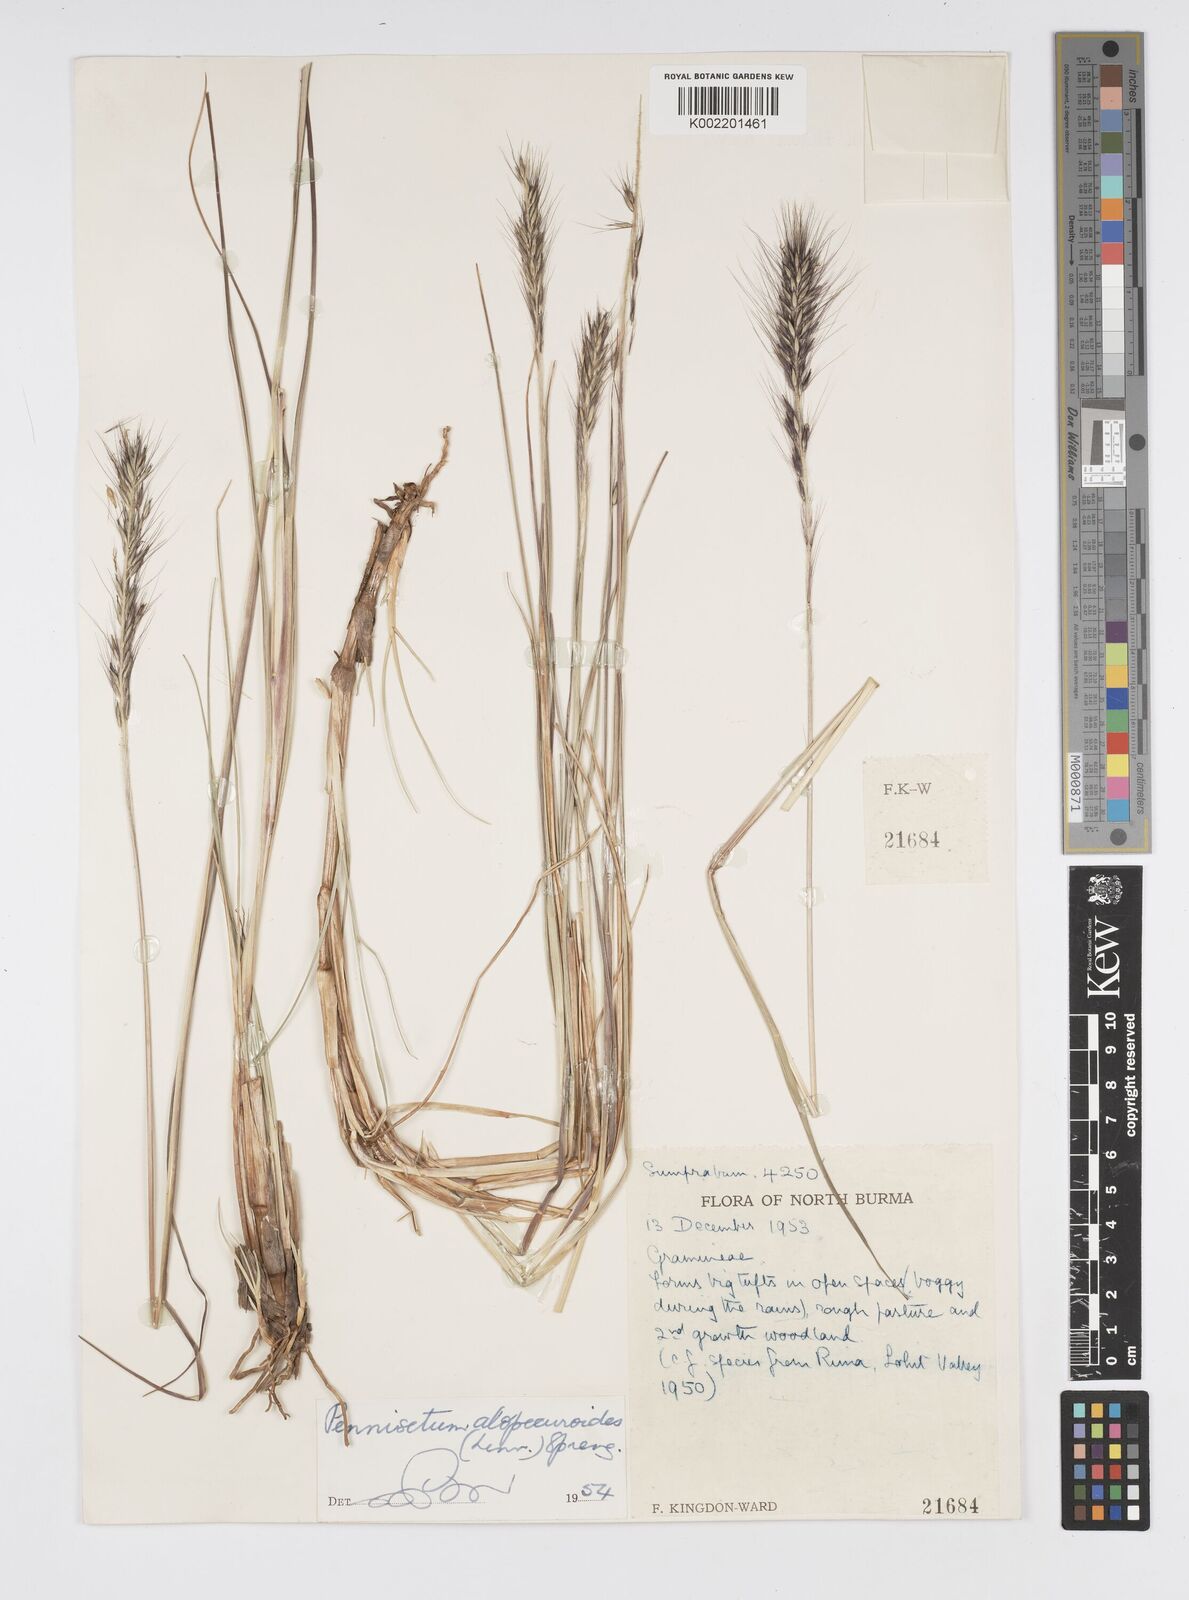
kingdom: Plantae
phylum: Tracheophyta
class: Liliopsida
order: Poales
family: Poaceae
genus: Cenchrus
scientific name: Cenchrus alopecuroides
